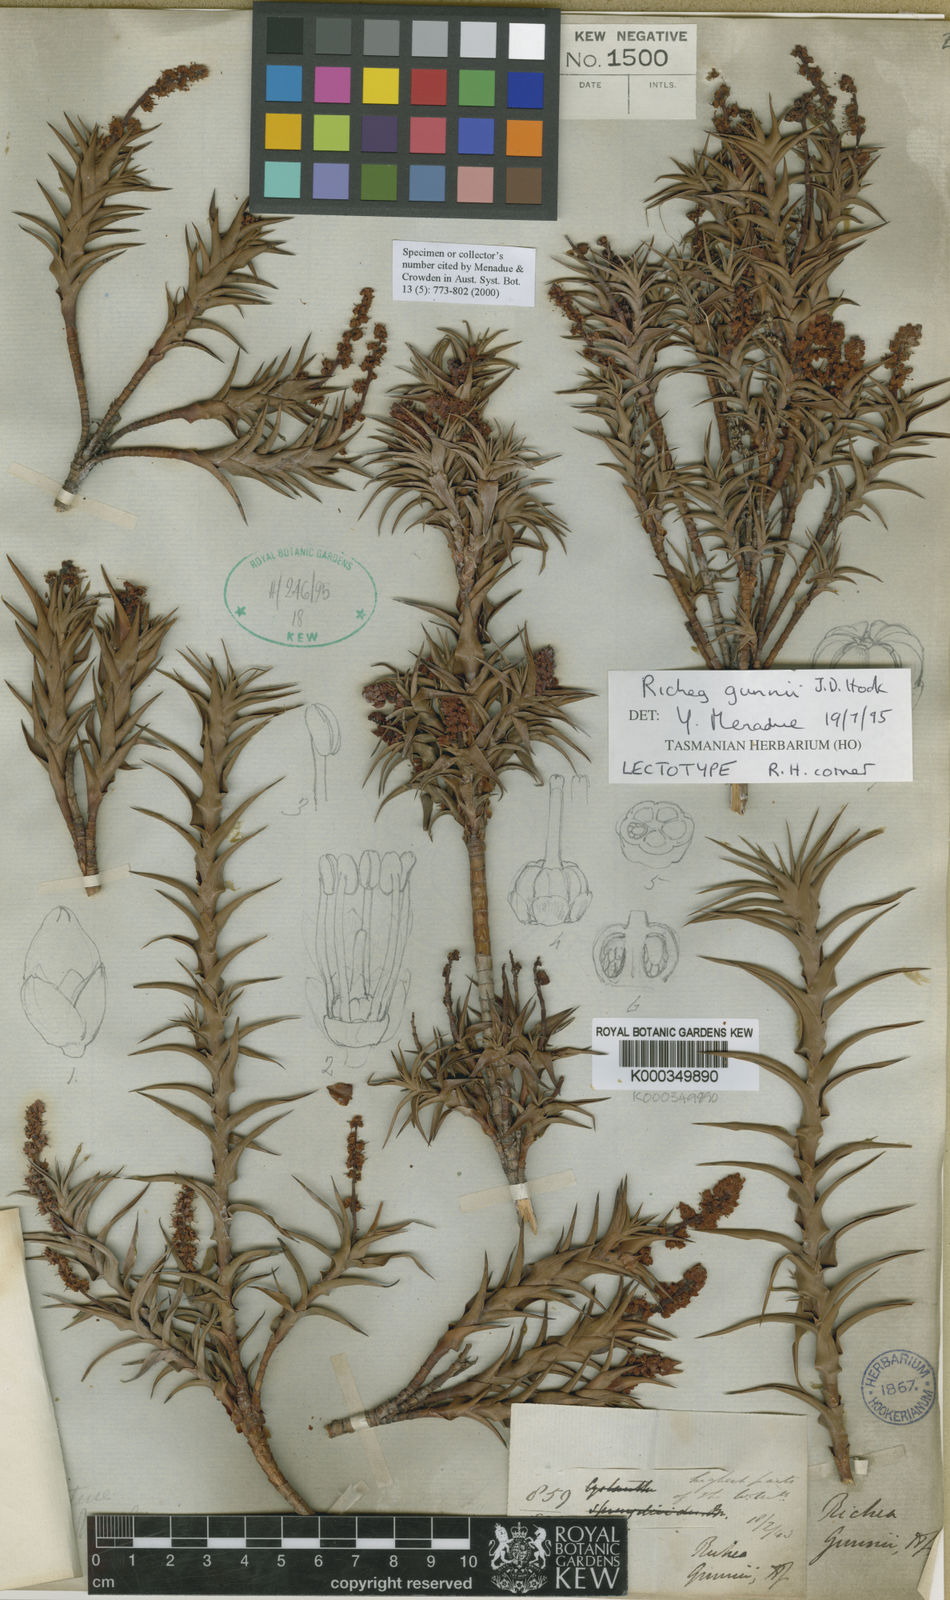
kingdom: Plantae
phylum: Tracheophyta
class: Magnoliopsida
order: Ericales
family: Ericaceae
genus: Dracophyllum
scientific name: Dracophyllum gunnii
